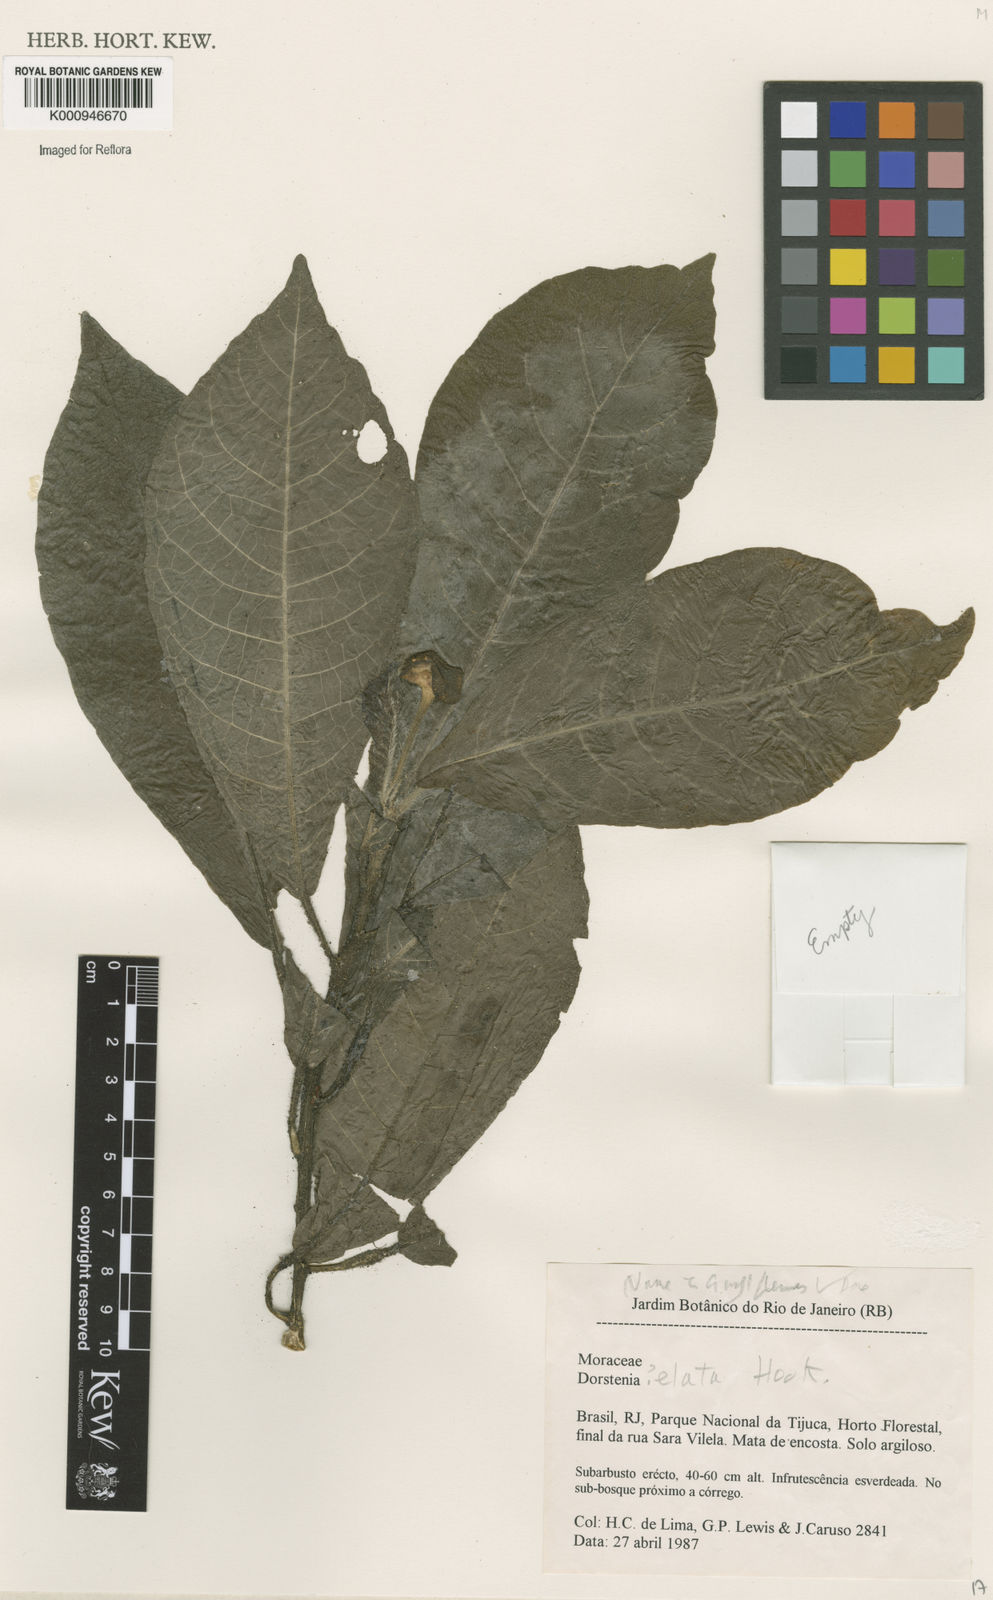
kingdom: Plantae
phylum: Tracheophyta
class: Magnoliopsida
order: Rosales
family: Moraceae
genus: Dorstenia
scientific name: Dorstenia hirta
